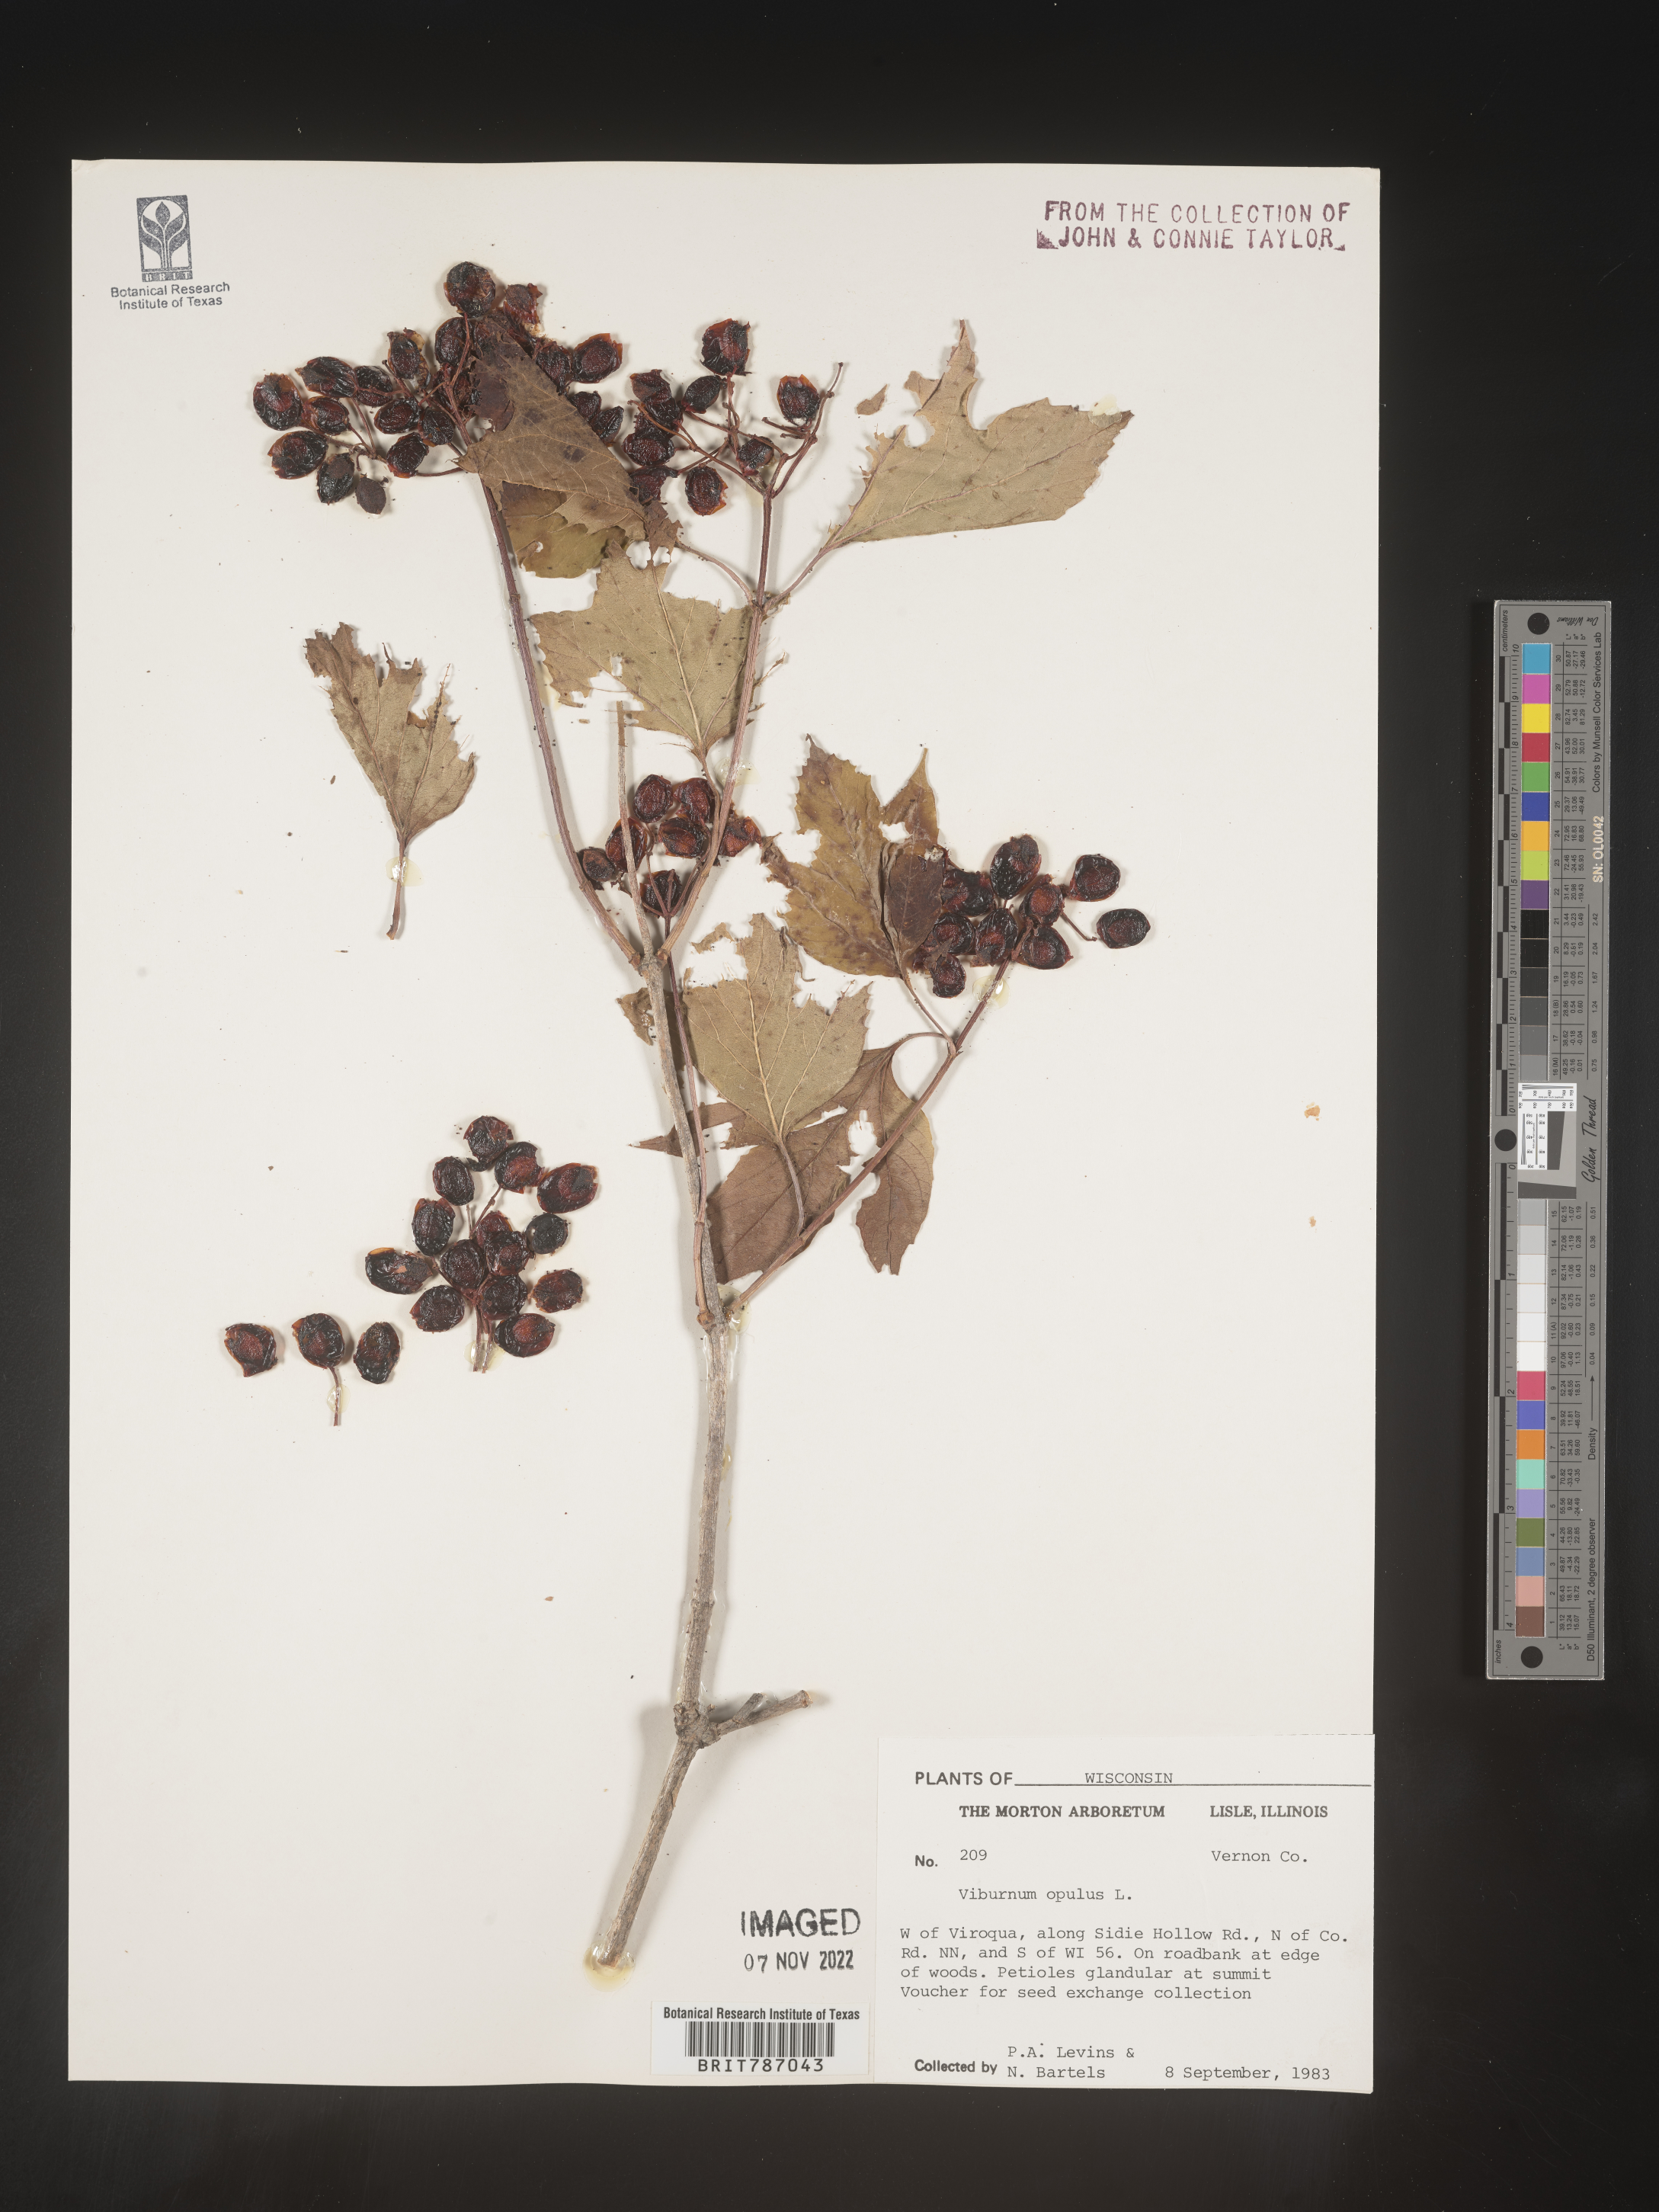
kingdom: Plantae
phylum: Tracheophyta
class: Magnoliopsida
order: Dipsacales
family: Viburnaceae
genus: Viburnum
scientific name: Viburnum opulus
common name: Guelder-rose
